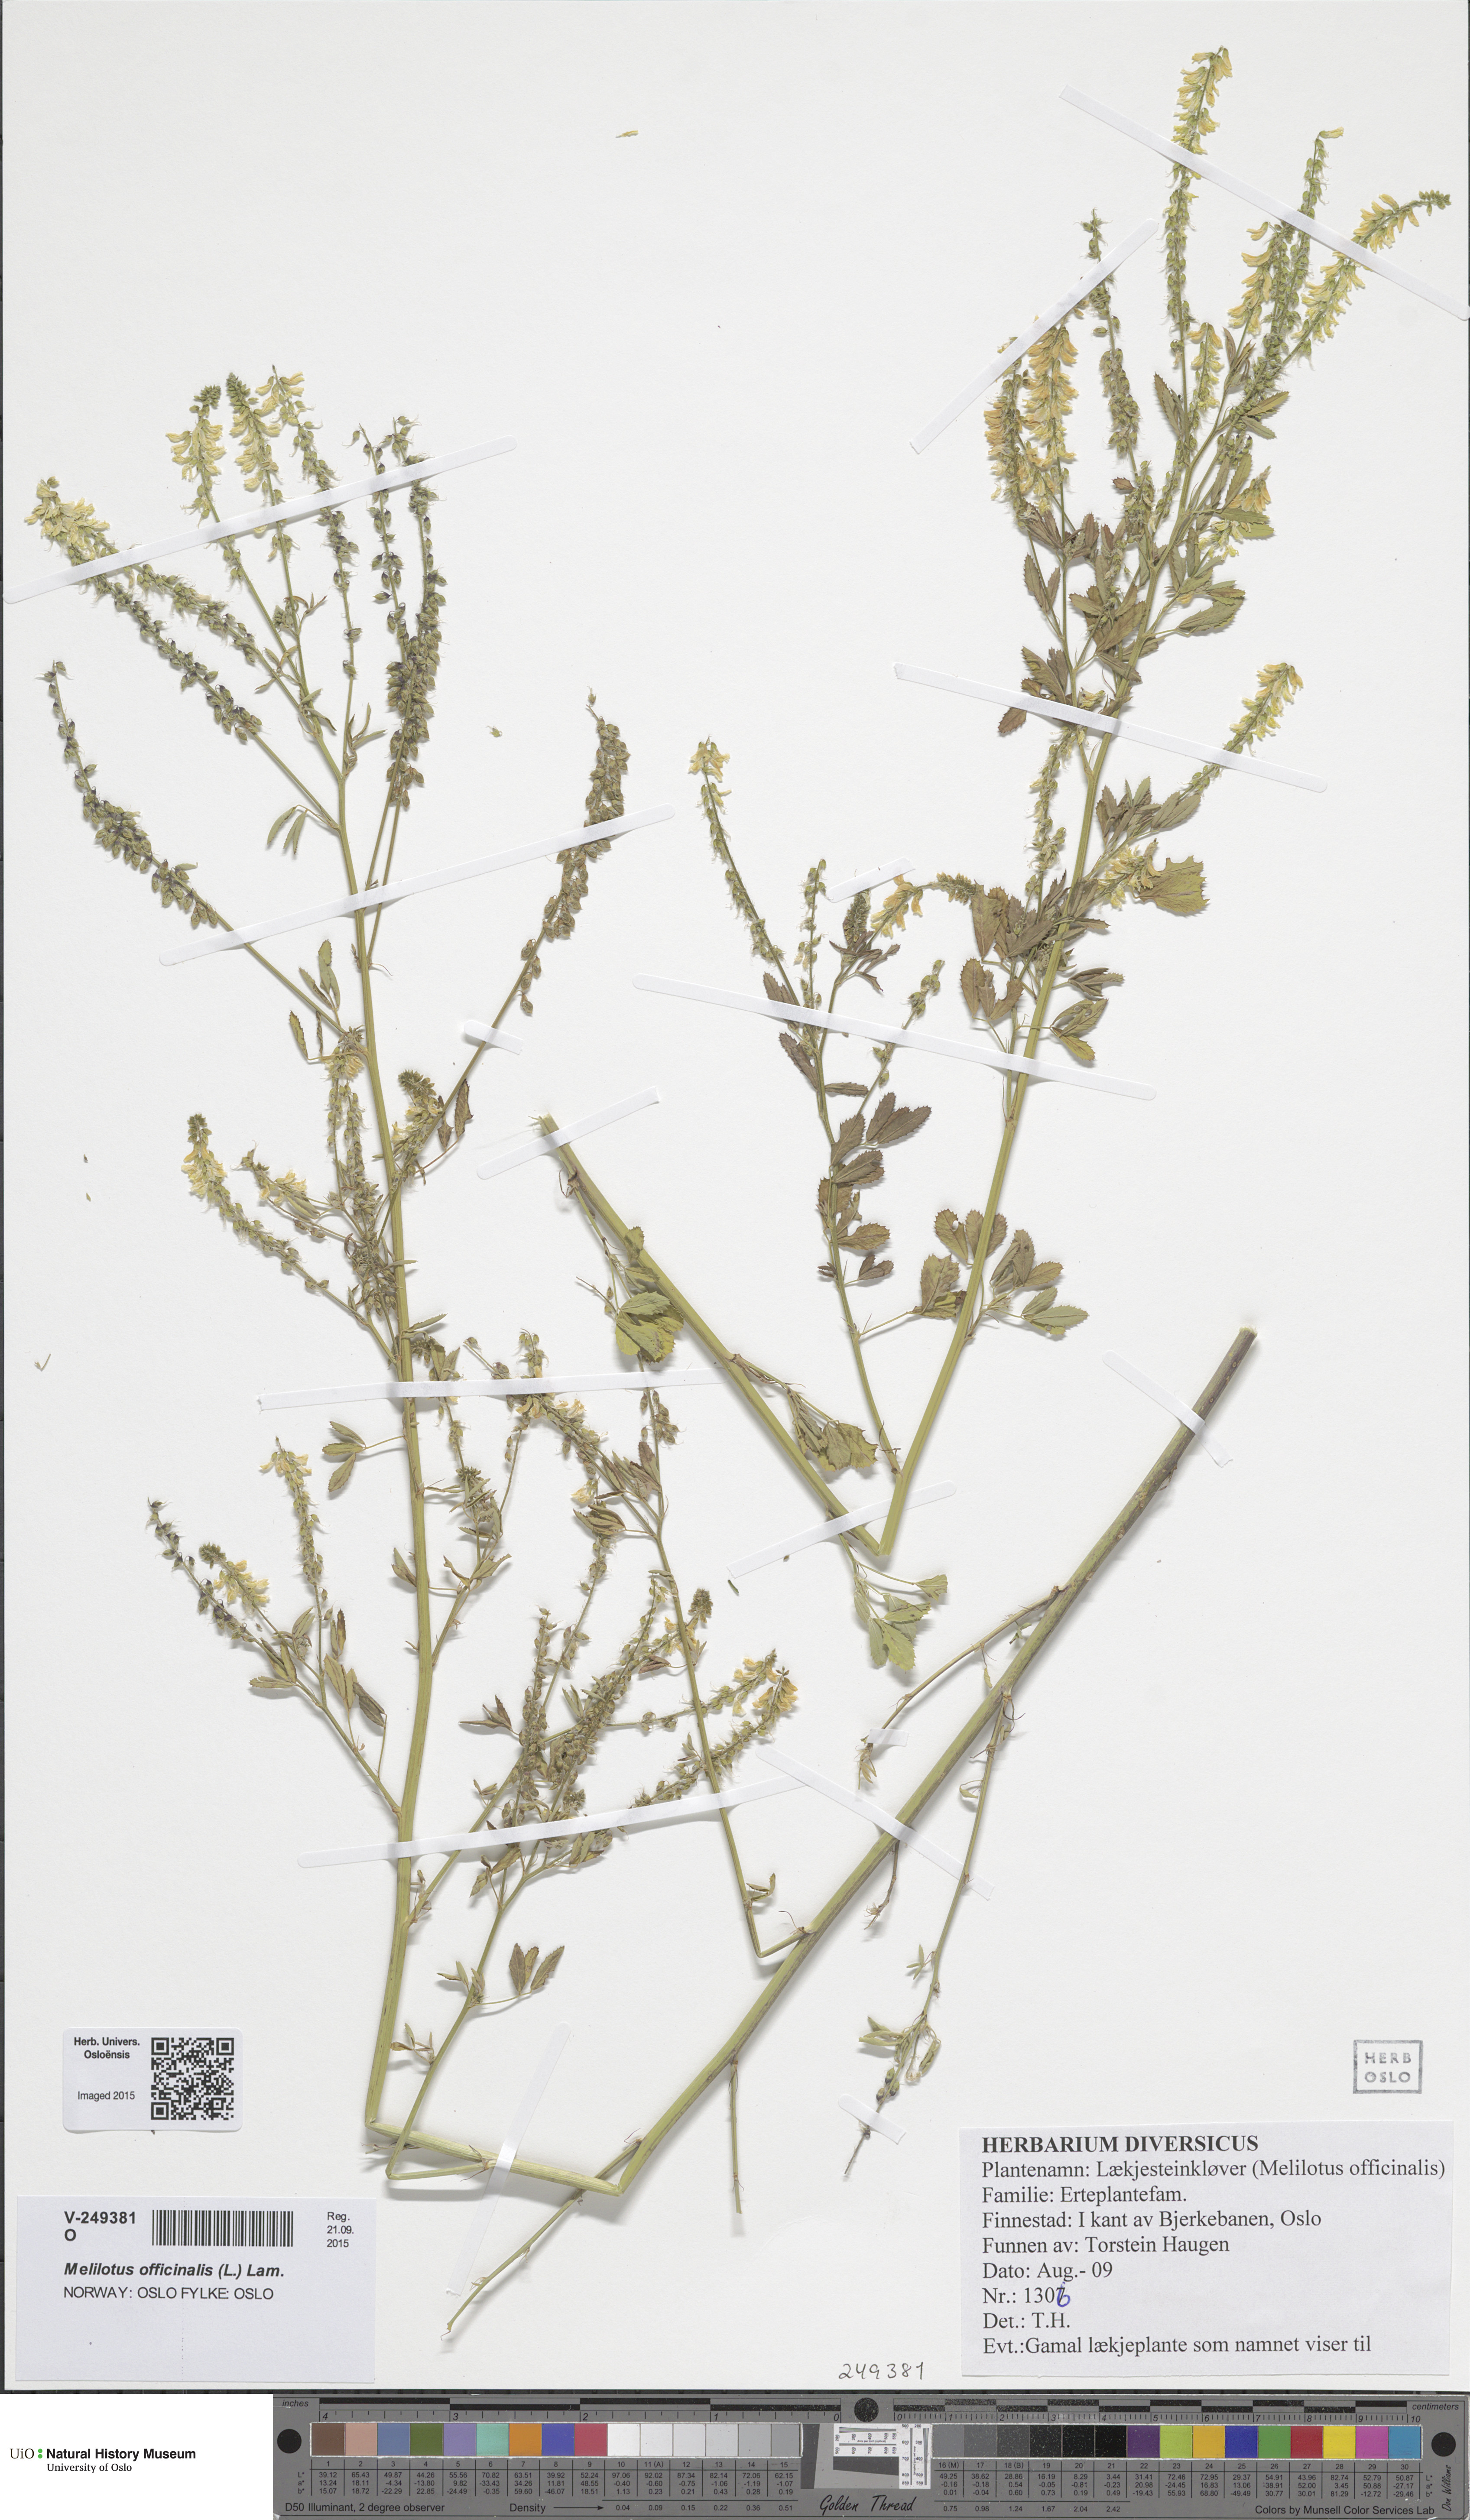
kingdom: Plantae
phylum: Tracheophyta
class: Magnoliopsida
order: Fabales
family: Fabaceae
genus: Melilotus
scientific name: Melilotus officinalis
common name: Sweetclover
